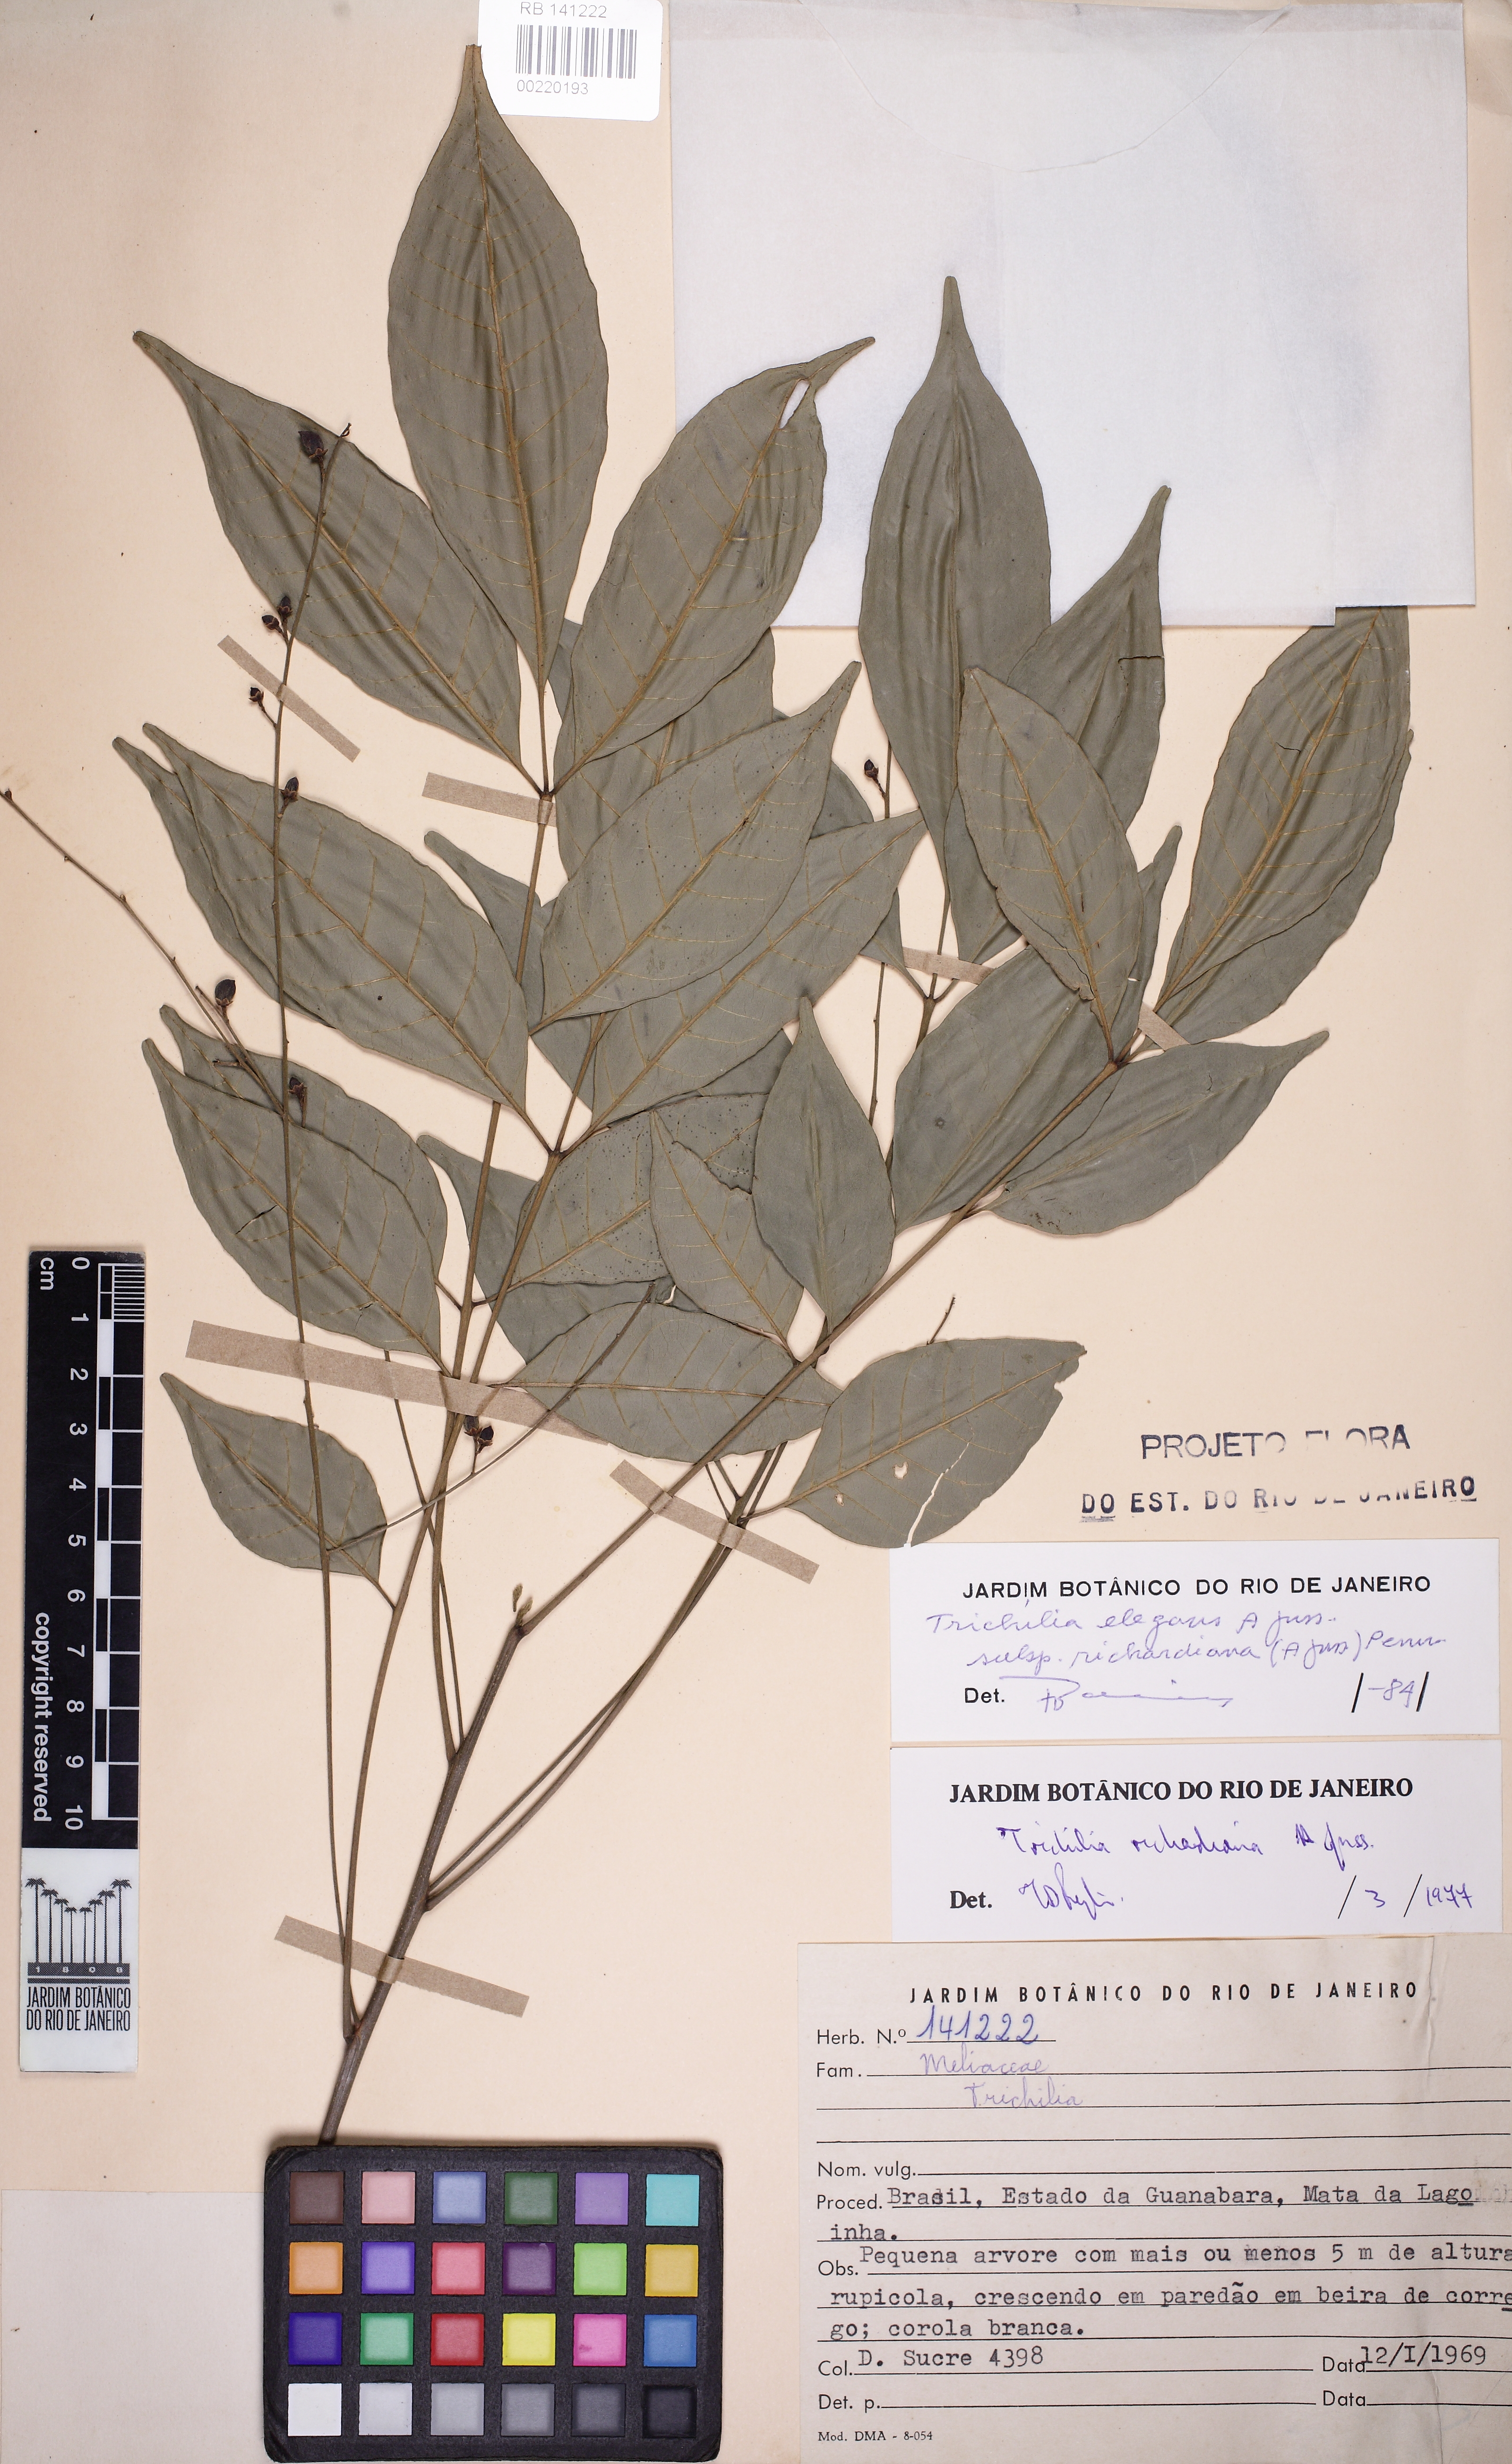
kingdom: Plantae
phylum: Tracheophyta
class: Magnoliopsida
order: Sapindales
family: Meliaceae
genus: Trichilia
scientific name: Trichilia elegans
